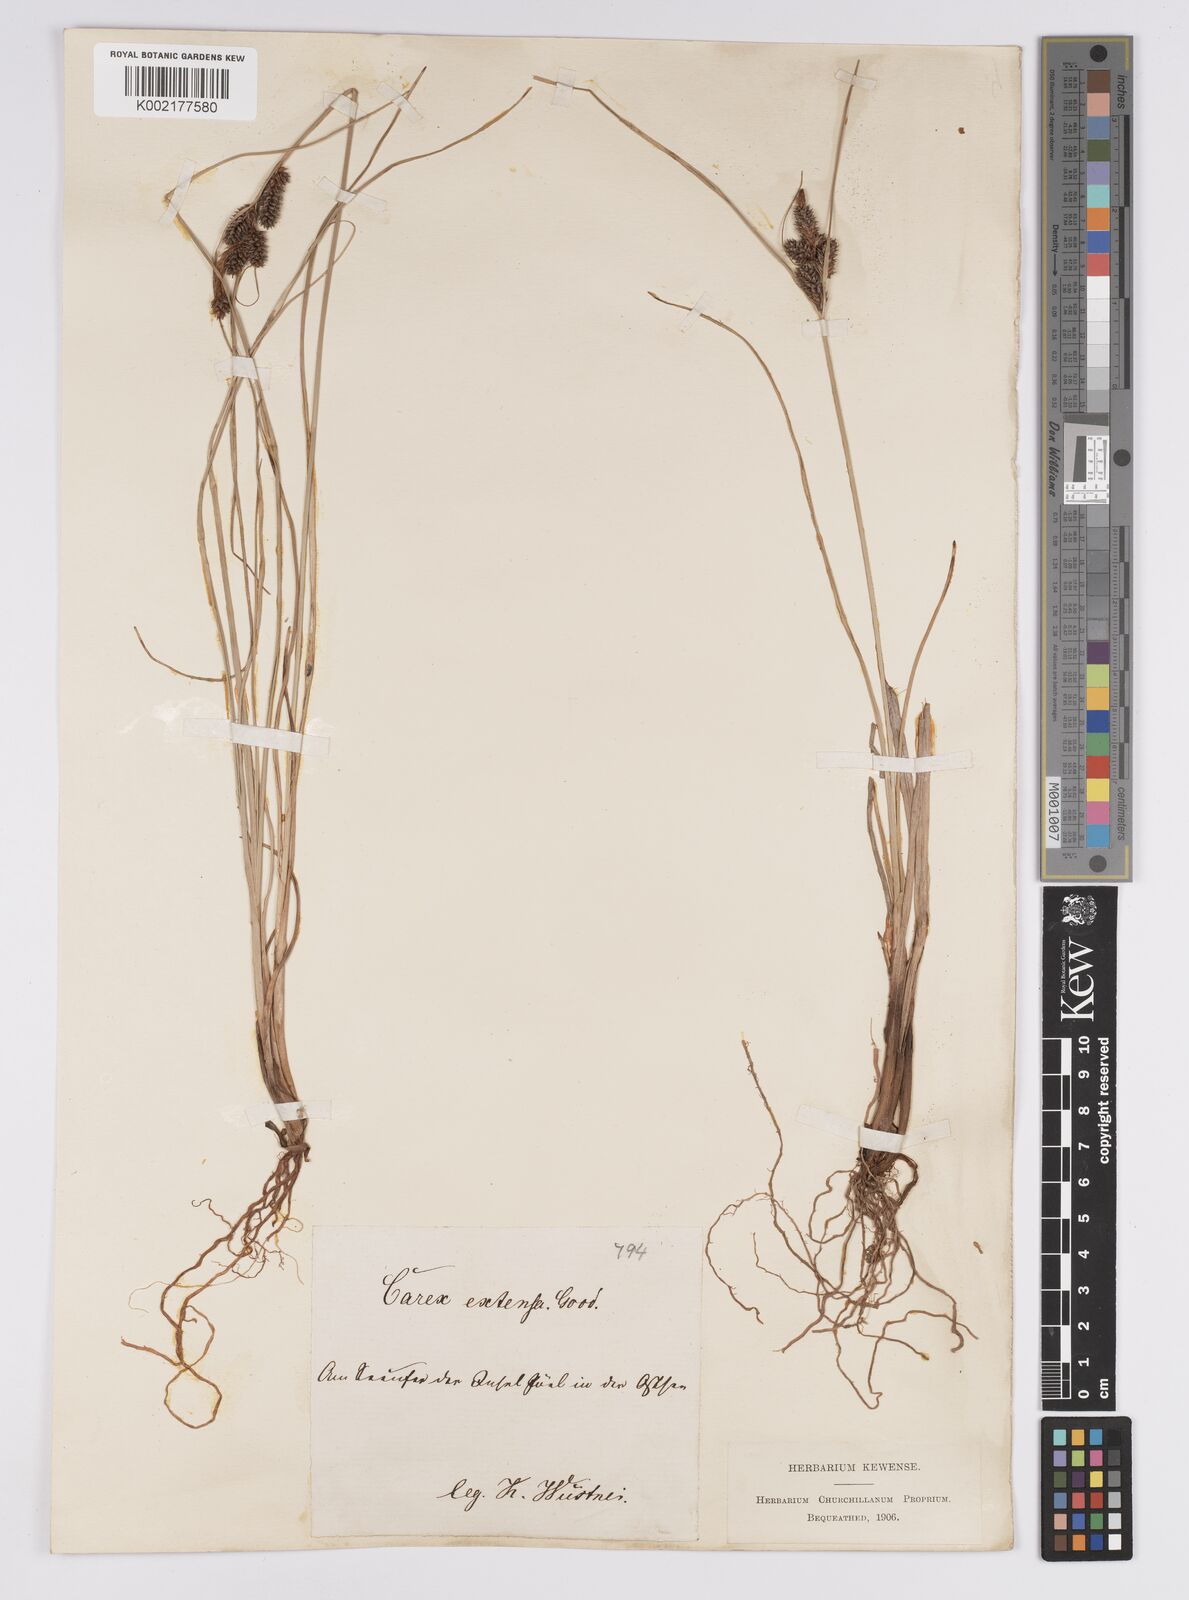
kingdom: Plantae
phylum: Tracheophyta
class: Liliopsida
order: Poales
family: Cyperaceae
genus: Carex
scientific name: Carex extensa
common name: Long-bracted sedge
